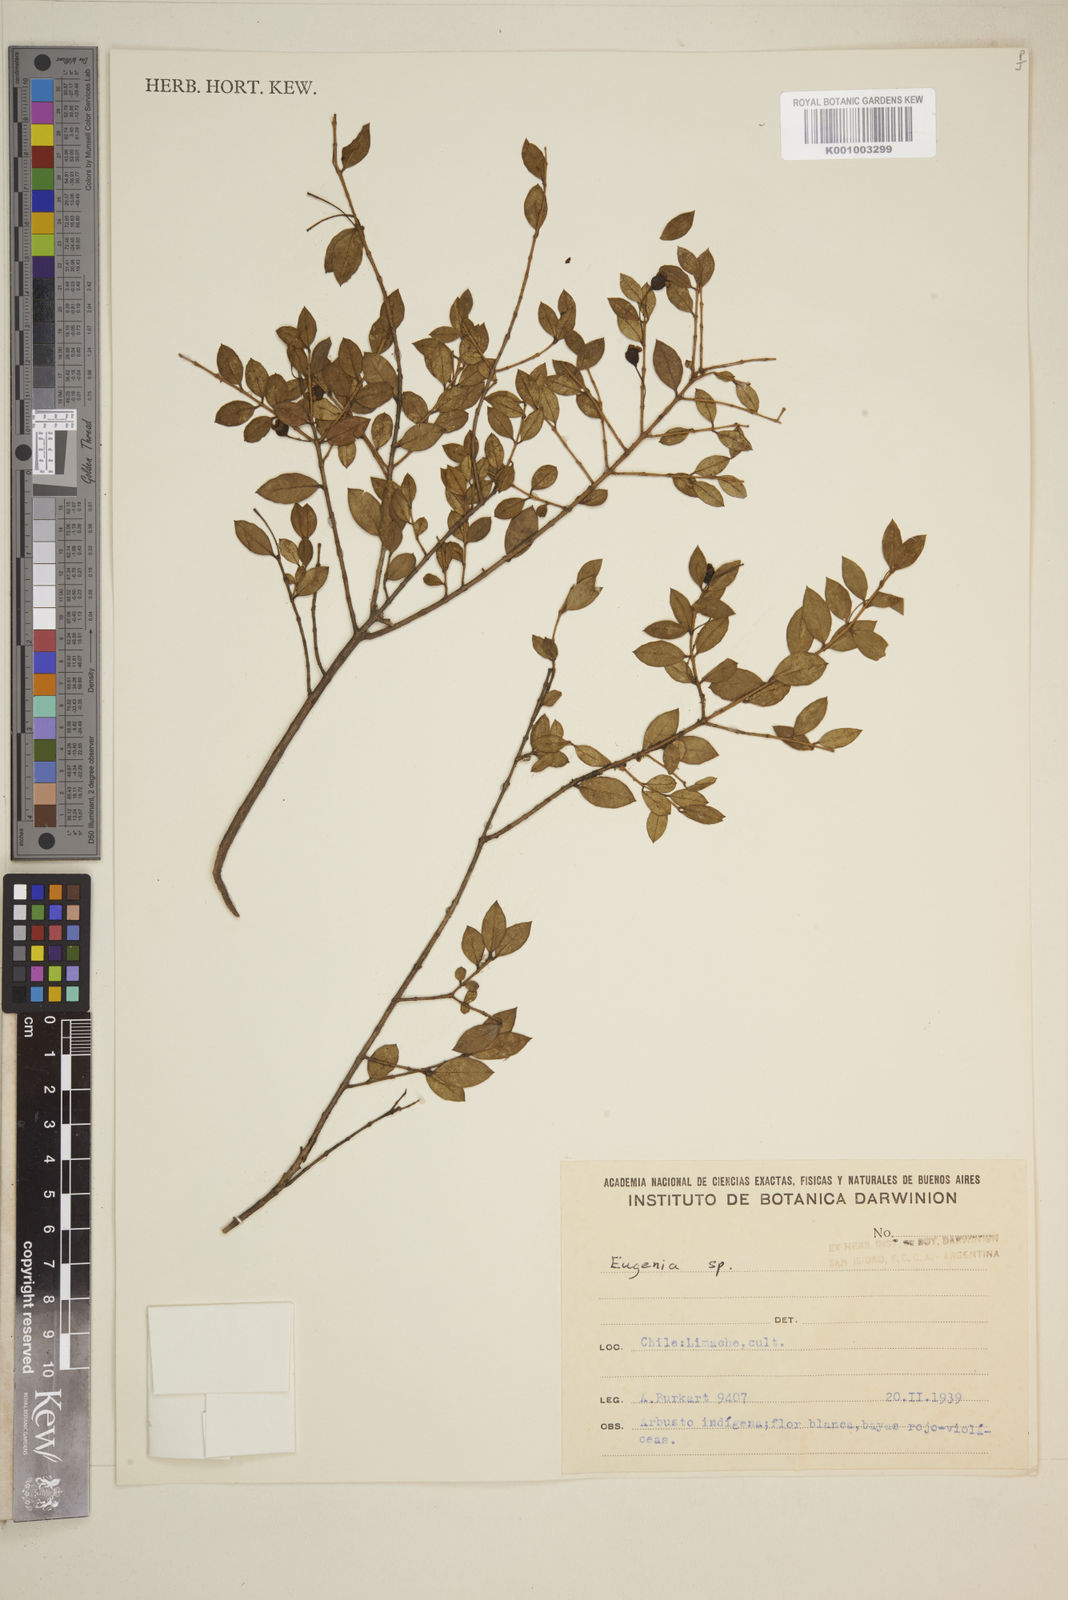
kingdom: Plantae
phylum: Tracheophyta
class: Magnoliopsida
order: Myrtales
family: Myrtaceae
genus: Eugenia
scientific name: Eugenia
